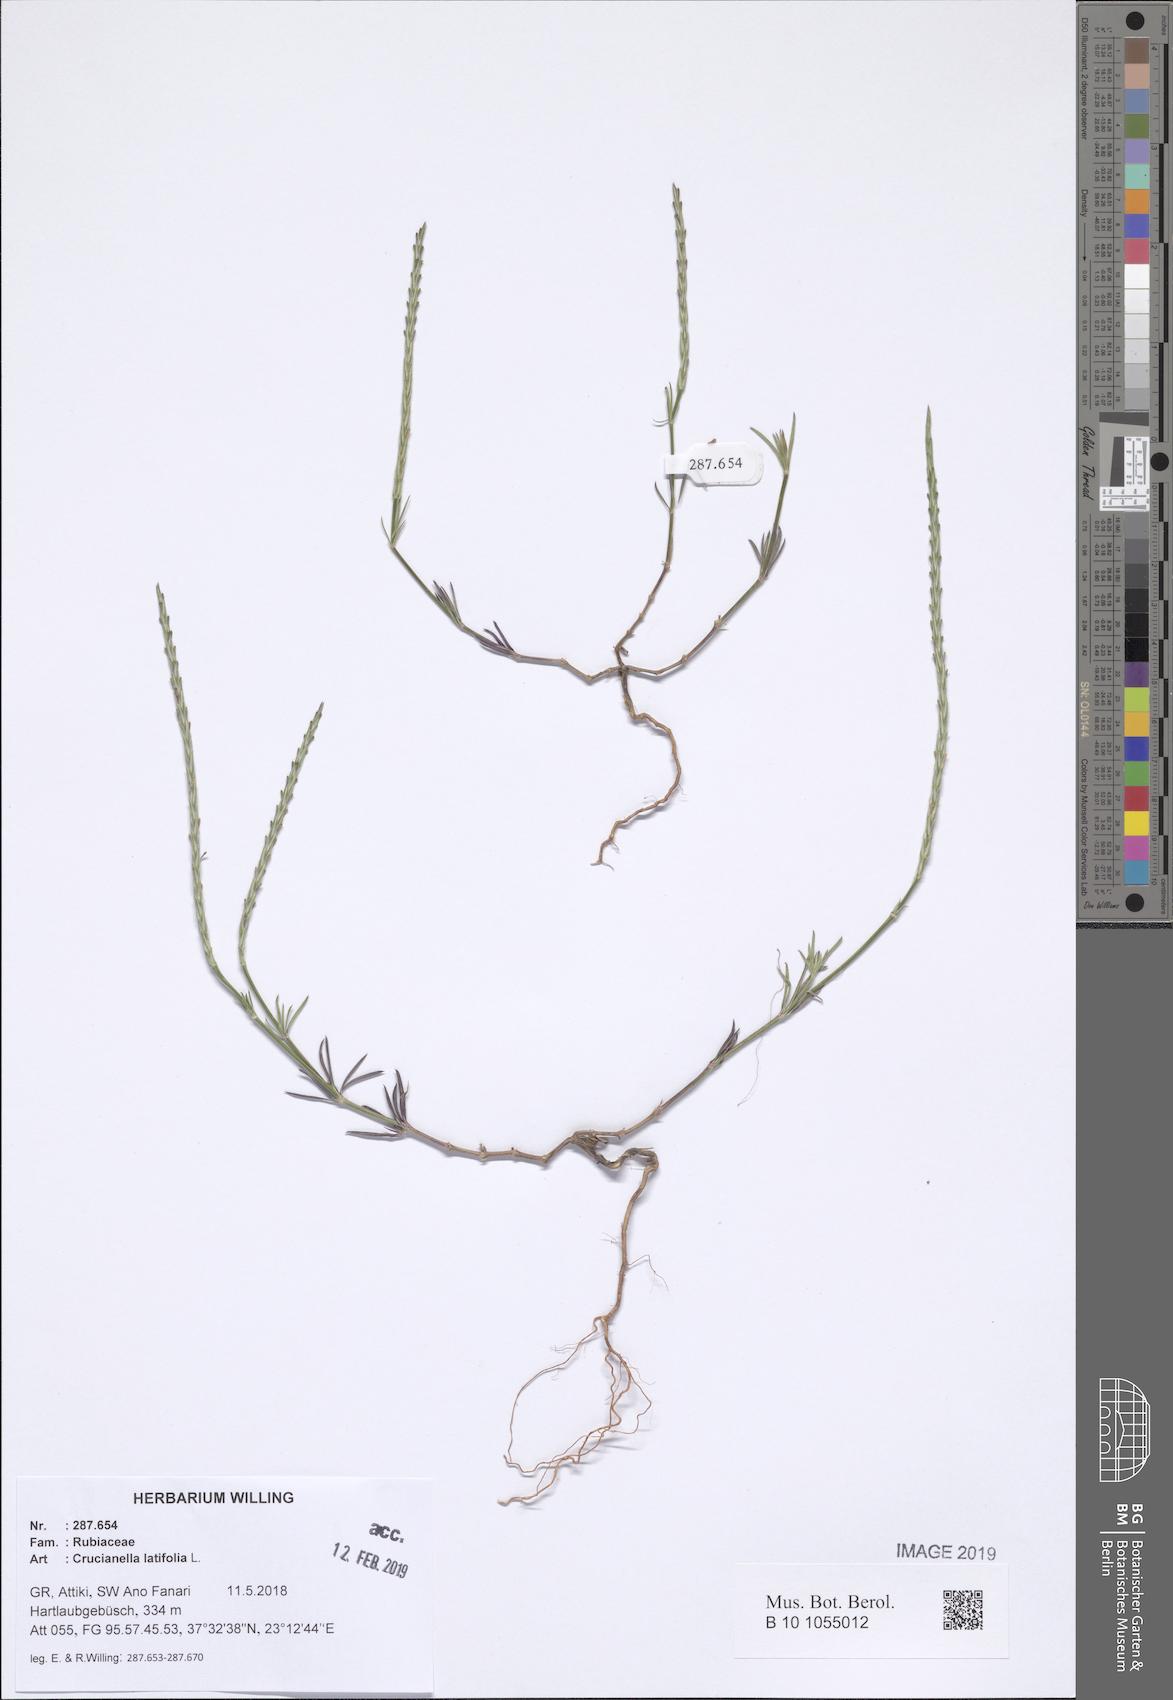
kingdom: Plantae
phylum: Tracheophyta
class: Magnoliopsida
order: Gentianales
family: Rubiaceae
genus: Crucianella
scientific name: Crucianella latifolia
